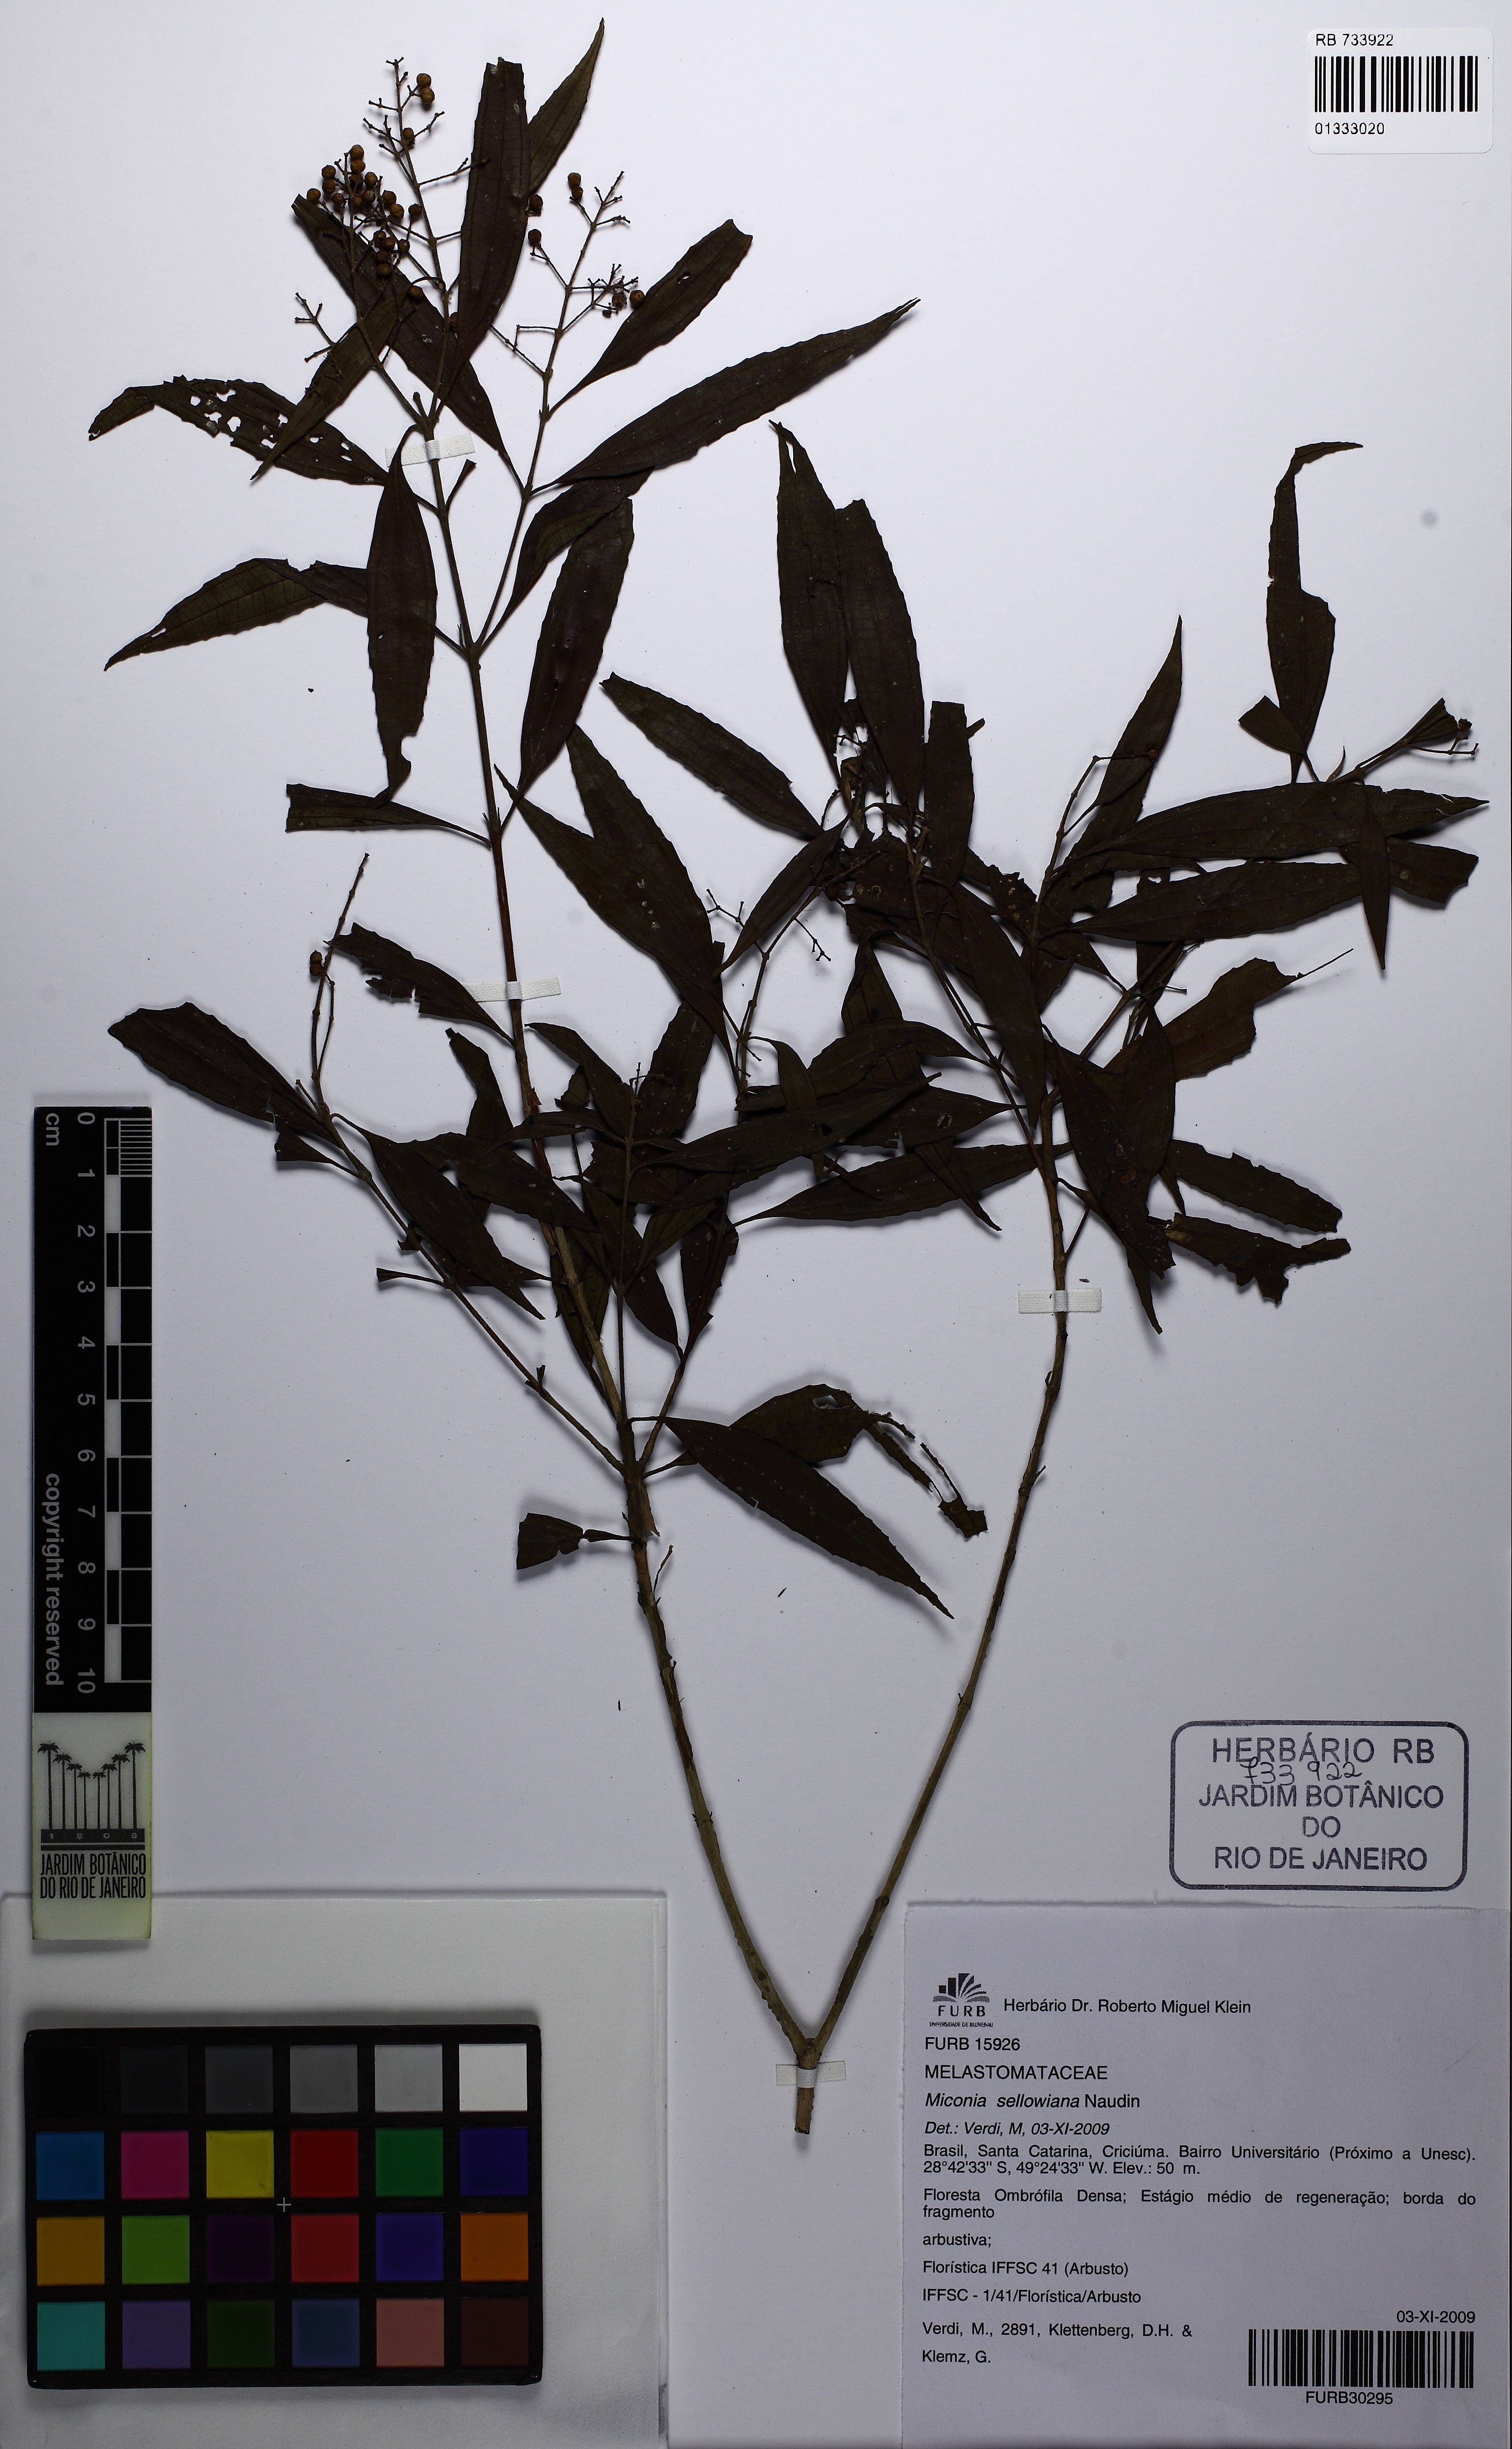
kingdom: Plantae
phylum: Tracheophyta
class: Magnoliopsida
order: Myrtales
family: Melastomataceae
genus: Miconia
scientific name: Miconia sellowiana
